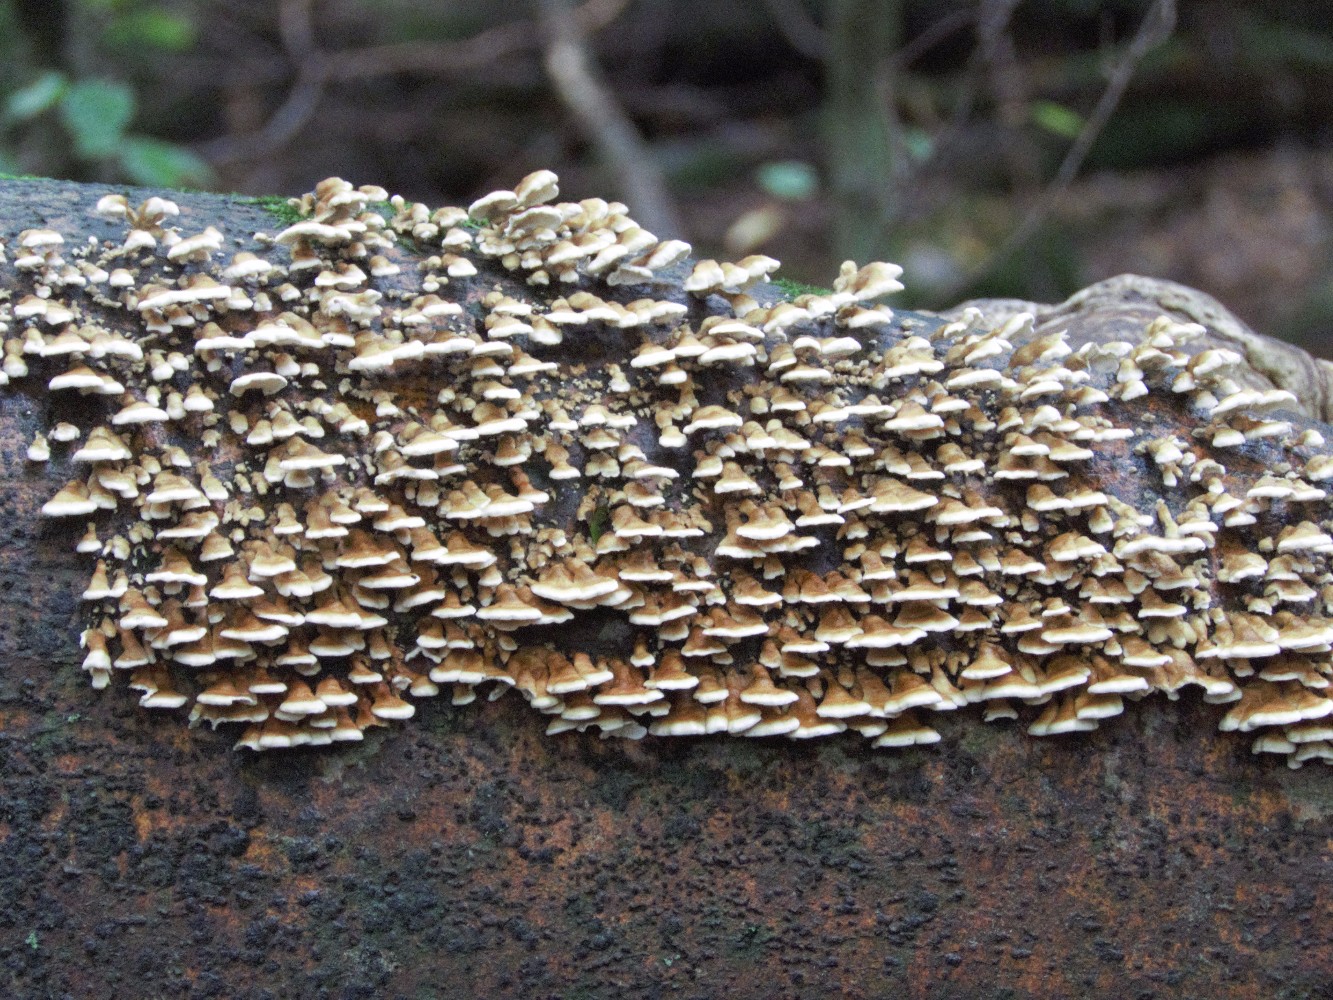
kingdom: Fungi
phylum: Basidiomycota
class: Agaricomycetes
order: Amylocorticiales
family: Amylocorticiaceae
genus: Plicaturopsis
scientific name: Plicaturopsis crispa
